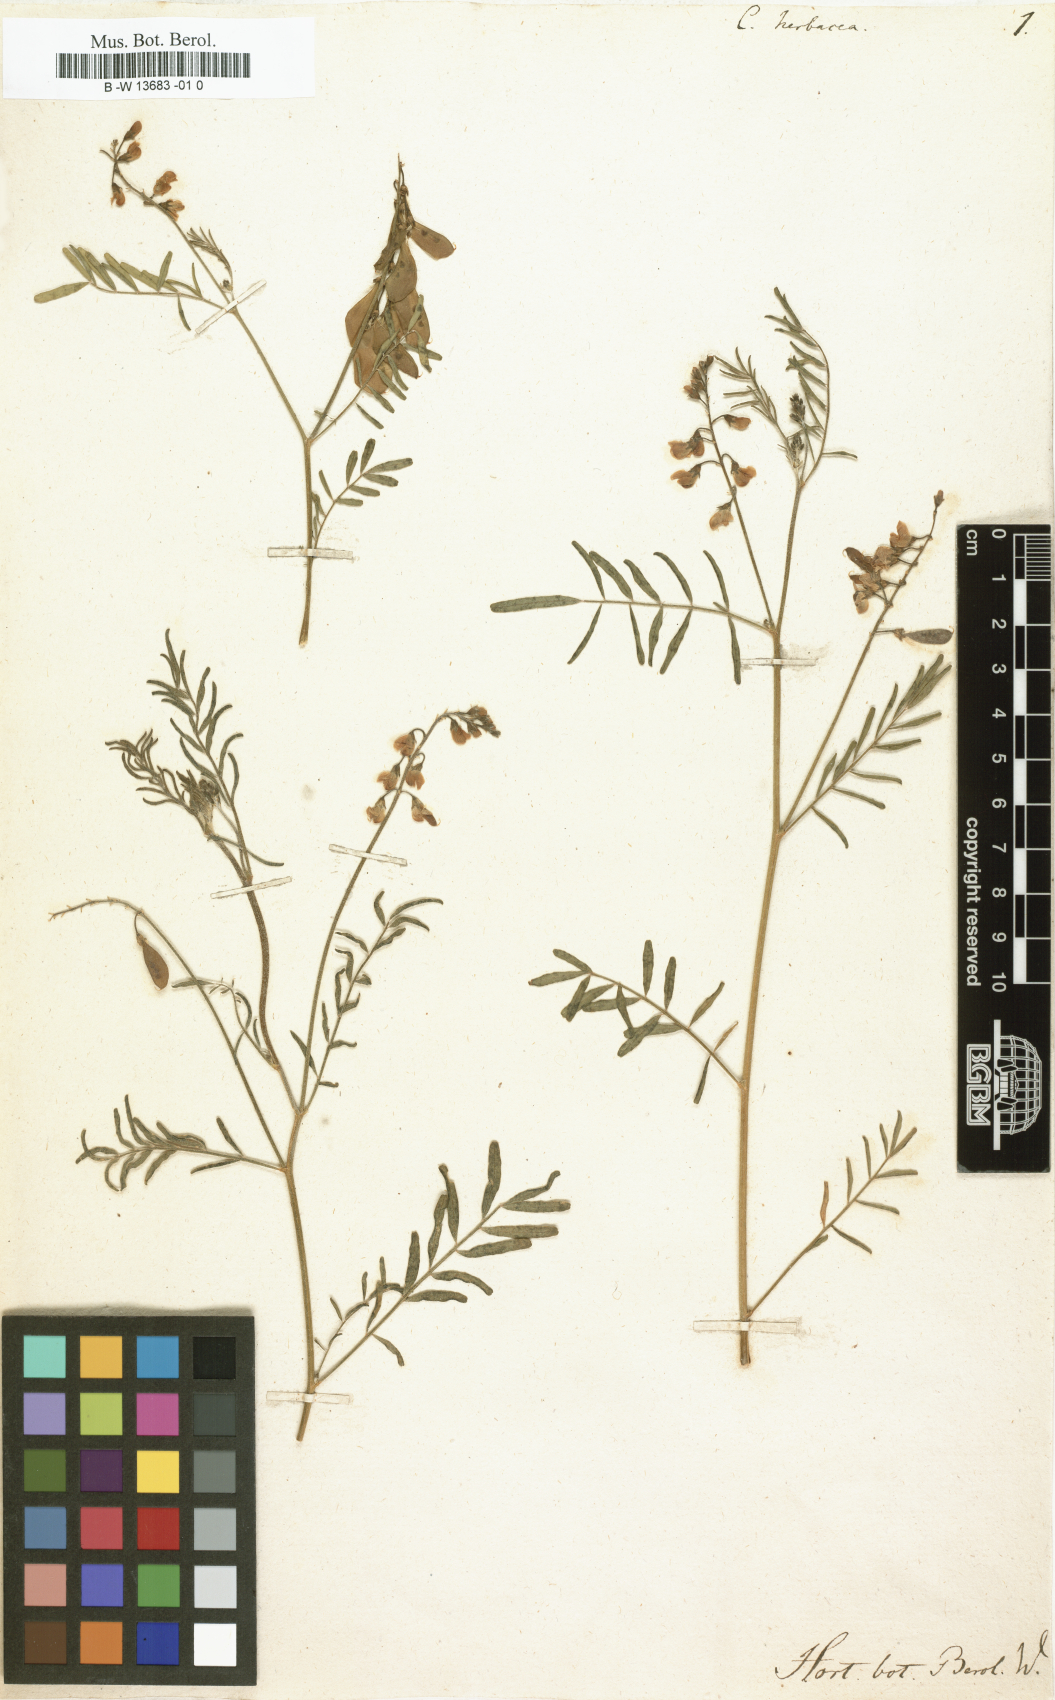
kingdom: Plantae
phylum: Tracheophyta
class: Magnoliopsida
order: Fabales
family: Fabaceae
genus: Lessertia
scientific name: Lessertia herbacea
